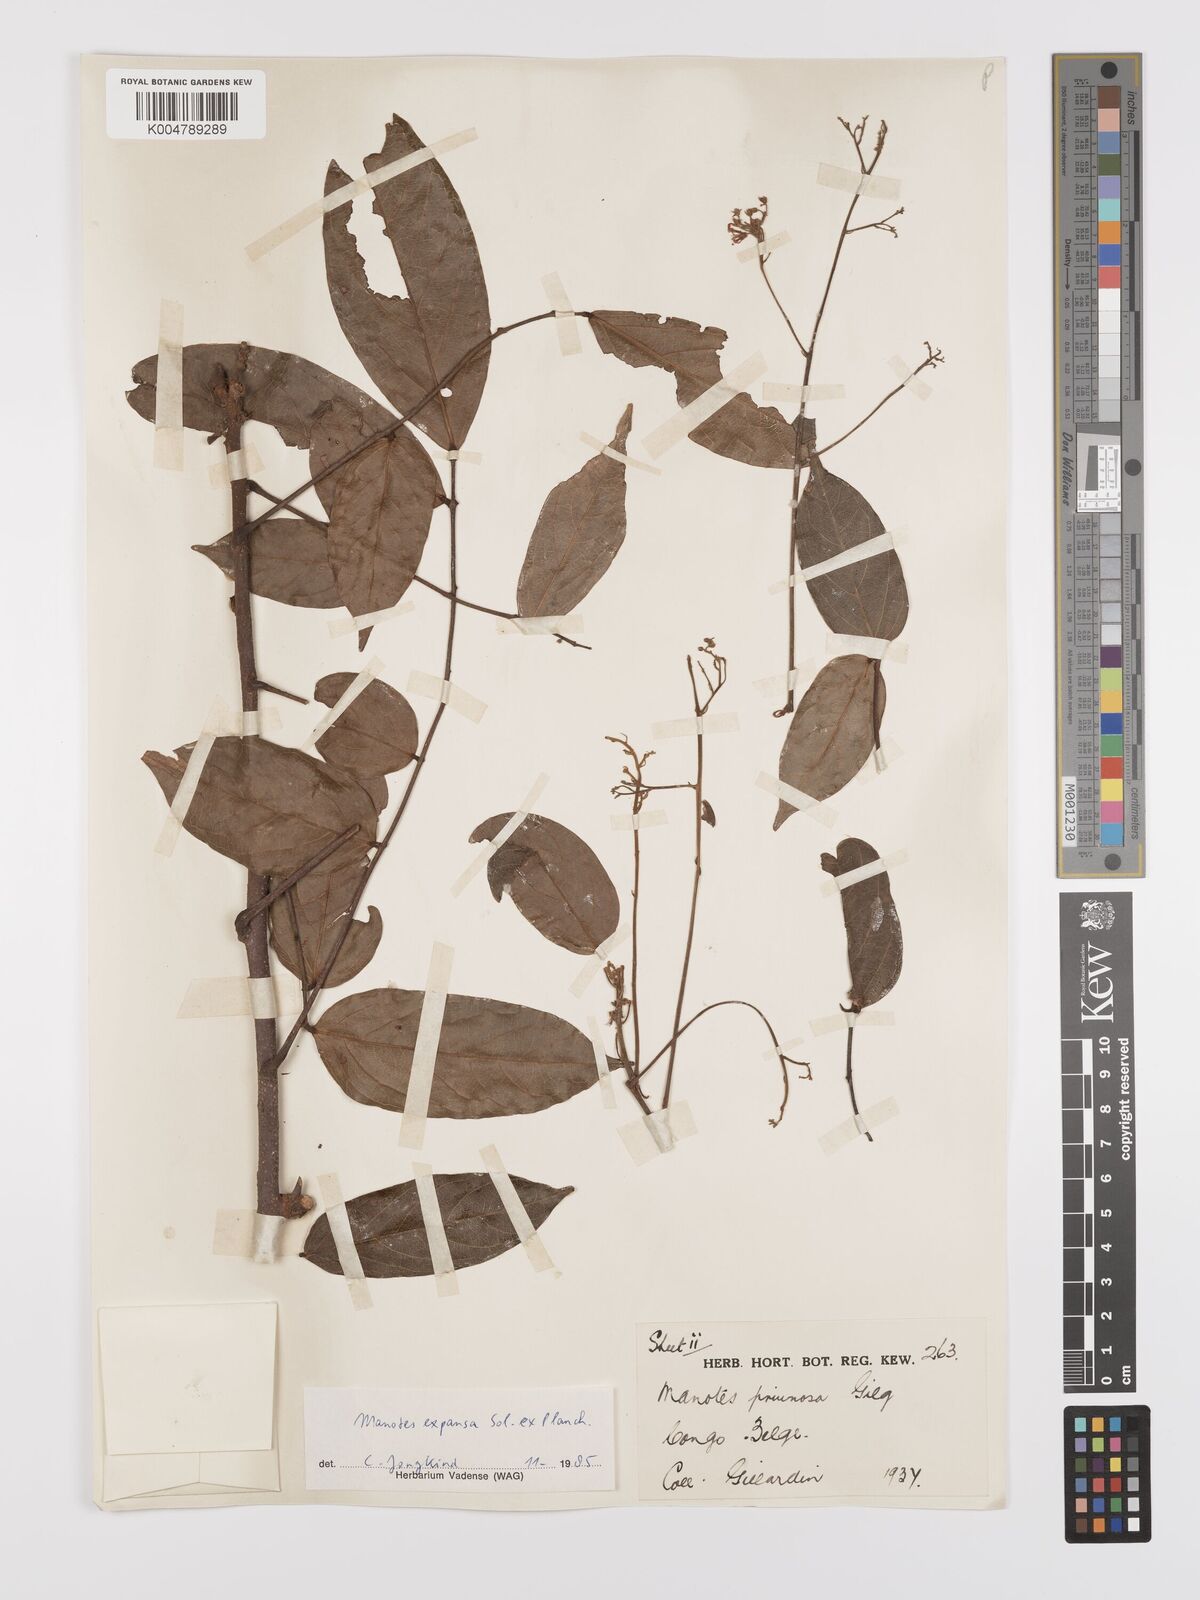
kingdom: Plantae
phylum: Tracheophyta
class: Magnoliopsida
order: Oxalidales
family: Connaraceae
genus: Manotes
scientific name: Manotes expansa
